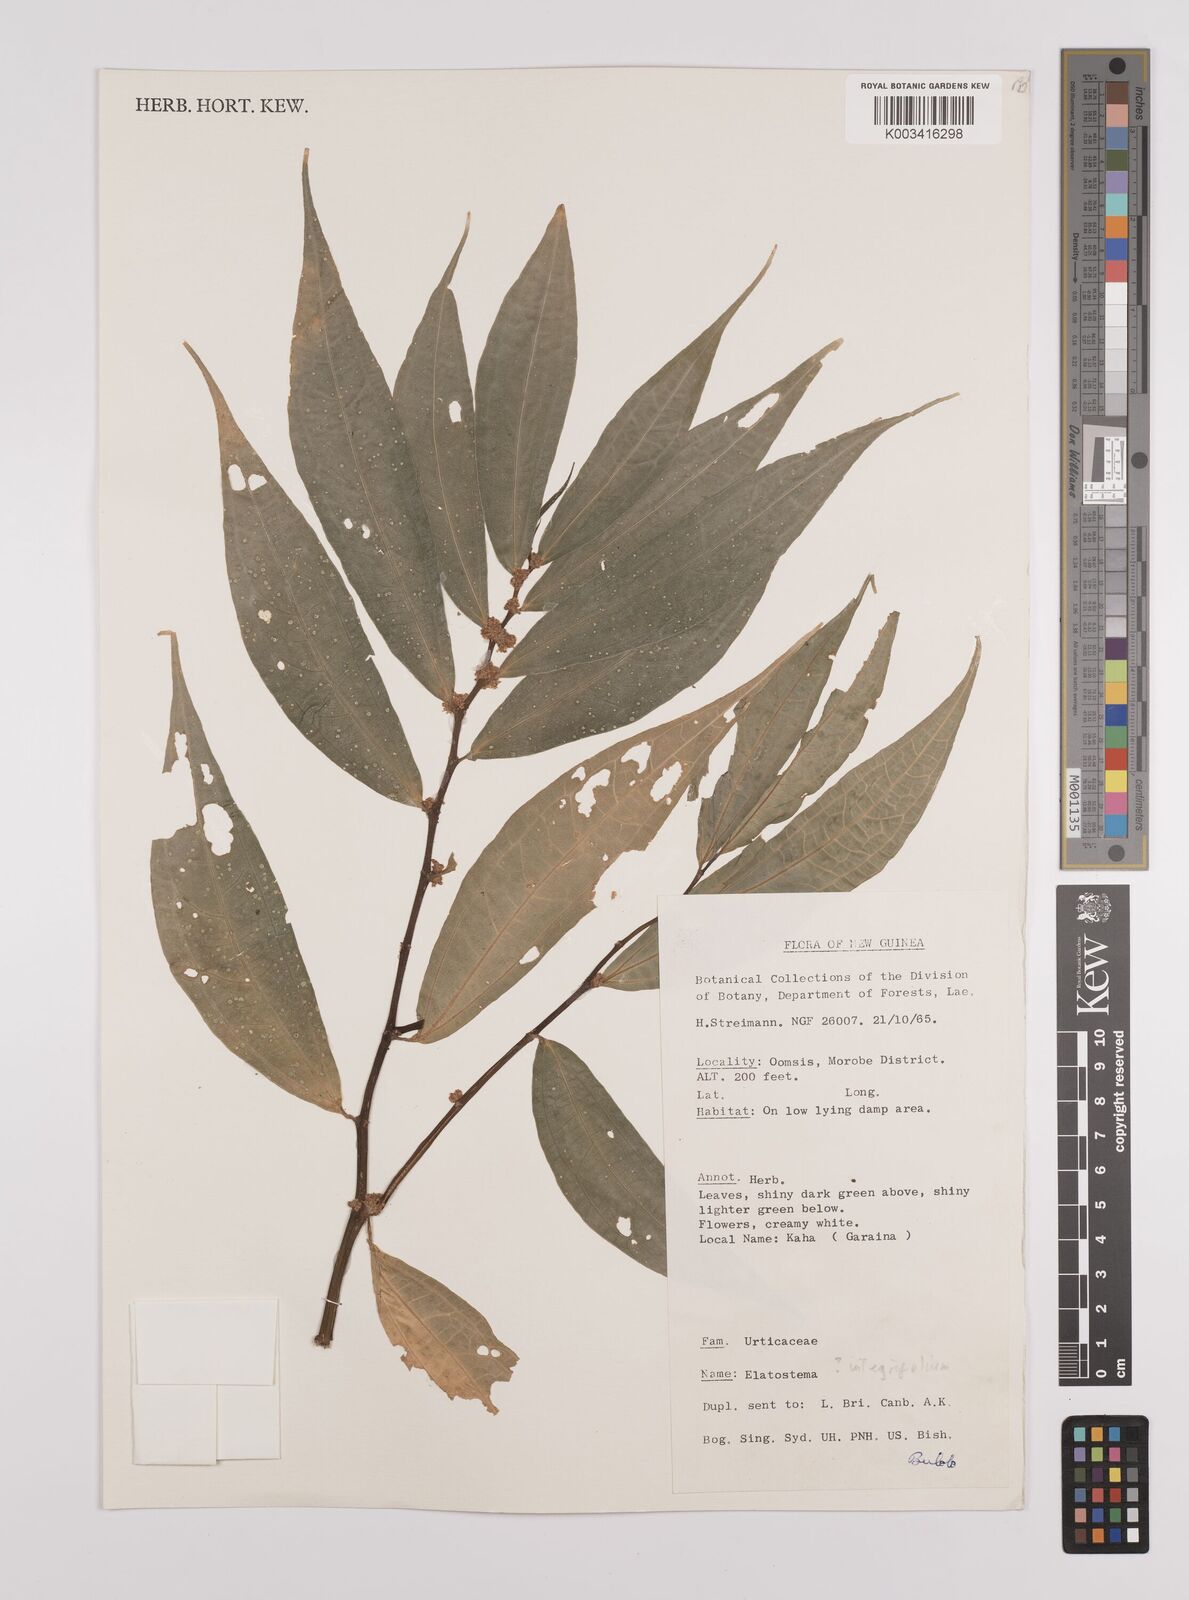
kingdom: Plantae
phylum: Tracheophyta
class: Magnoliopsida
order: Rosales
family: Urticaceae
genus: Elatostema
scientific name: Elatostema integrifolium
